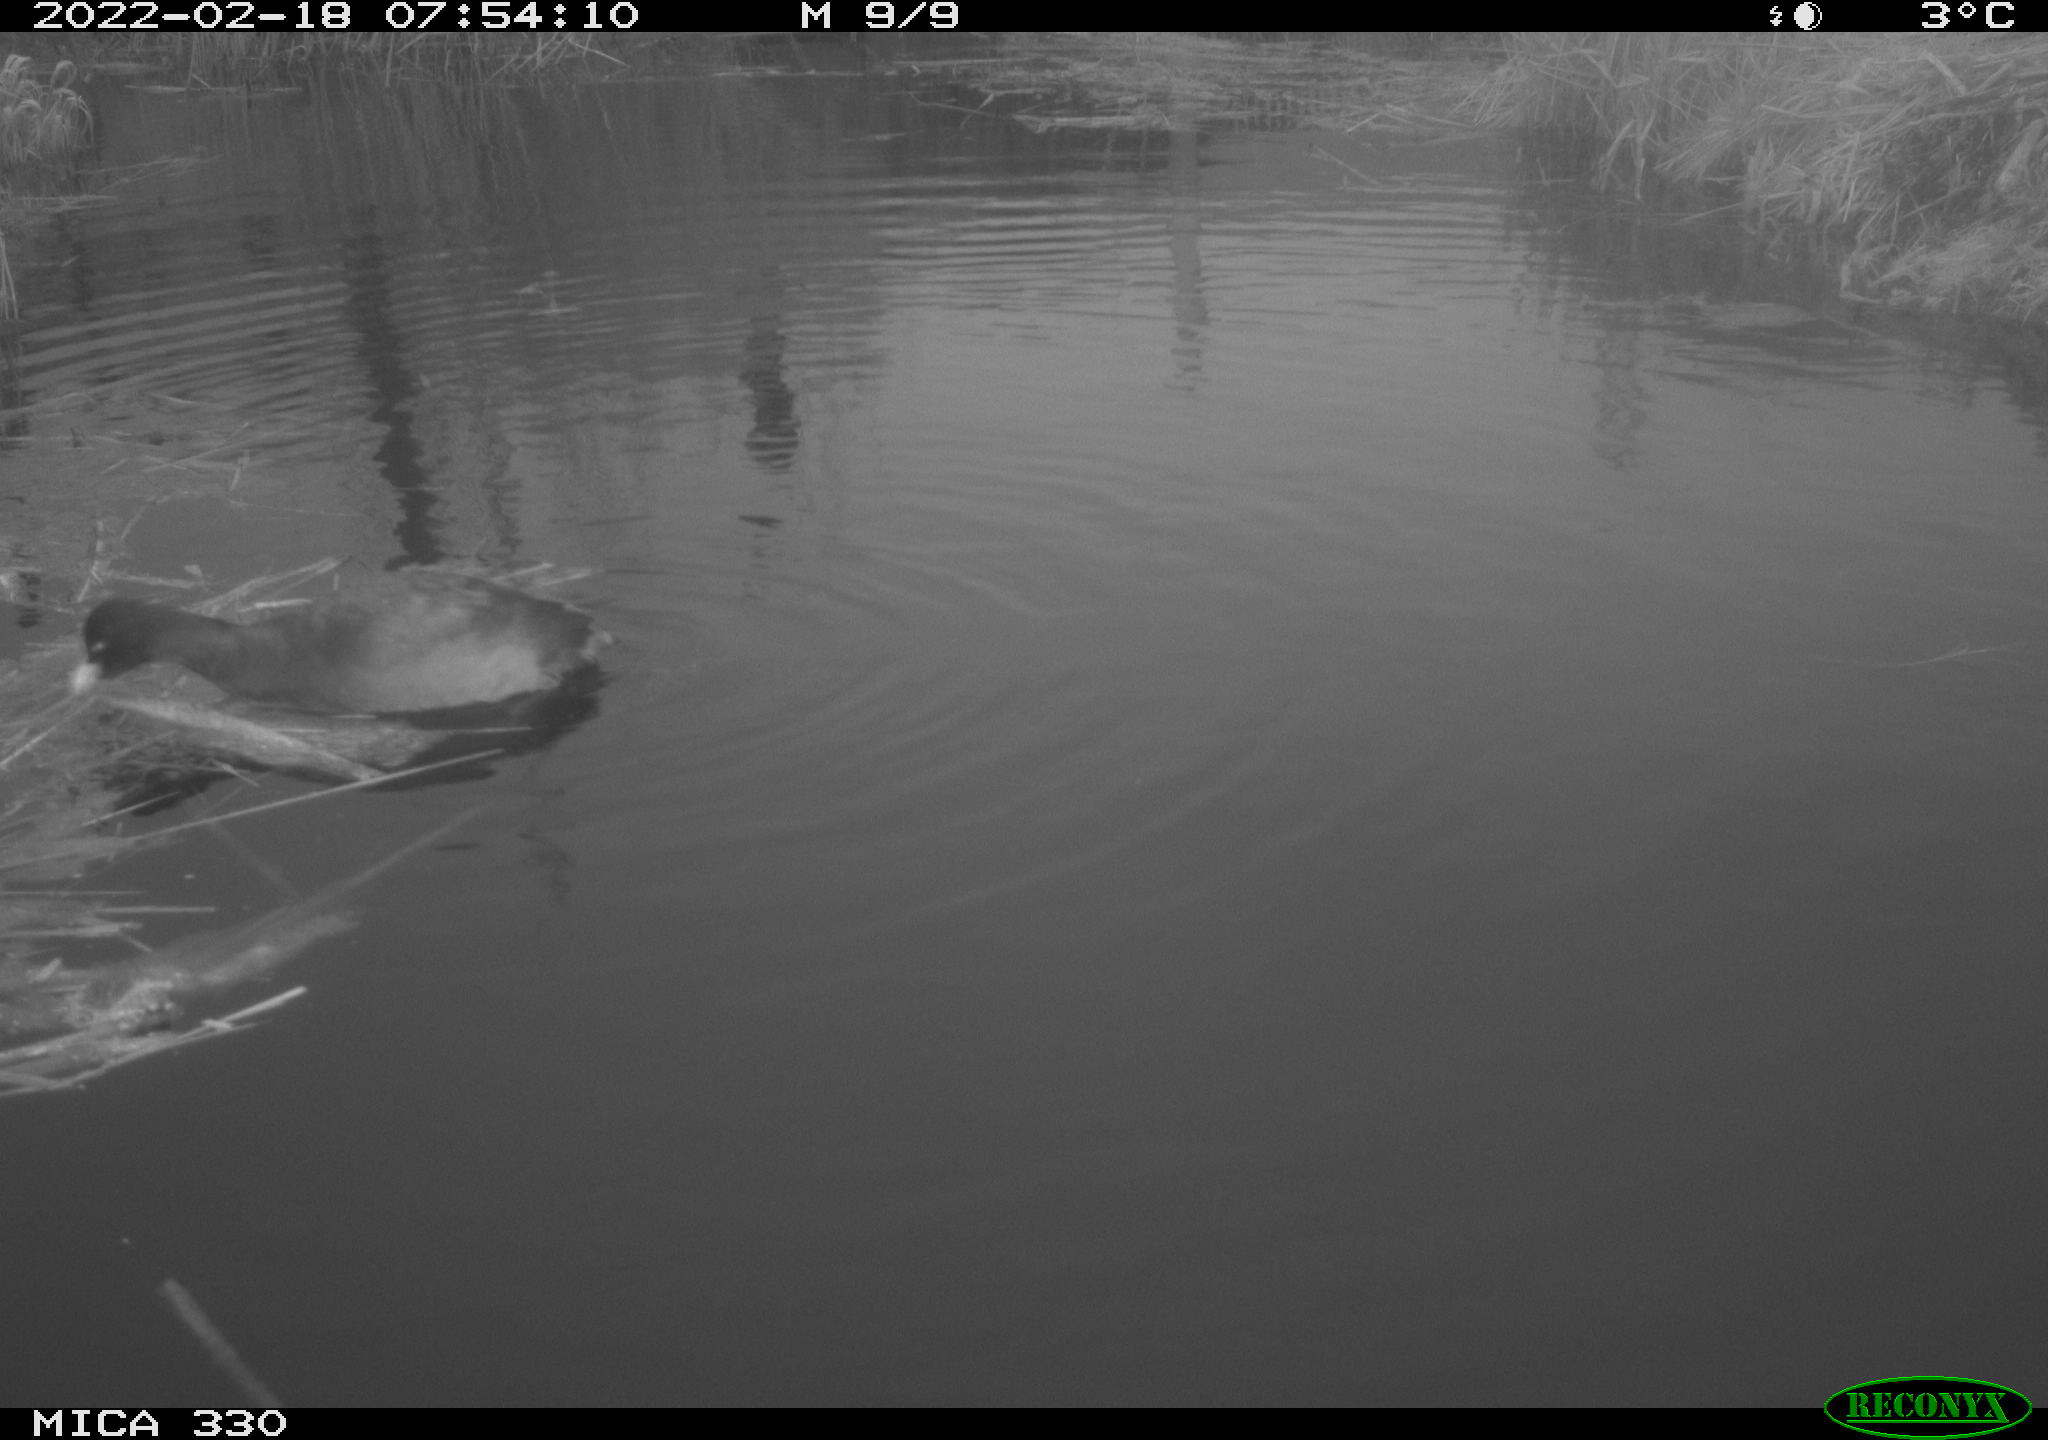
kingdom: Animalia
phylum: Chordata
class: Aves
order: Gruiformes
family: Rallidae
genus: Fulica
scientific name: Fulica atra
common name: Eurasian coot
